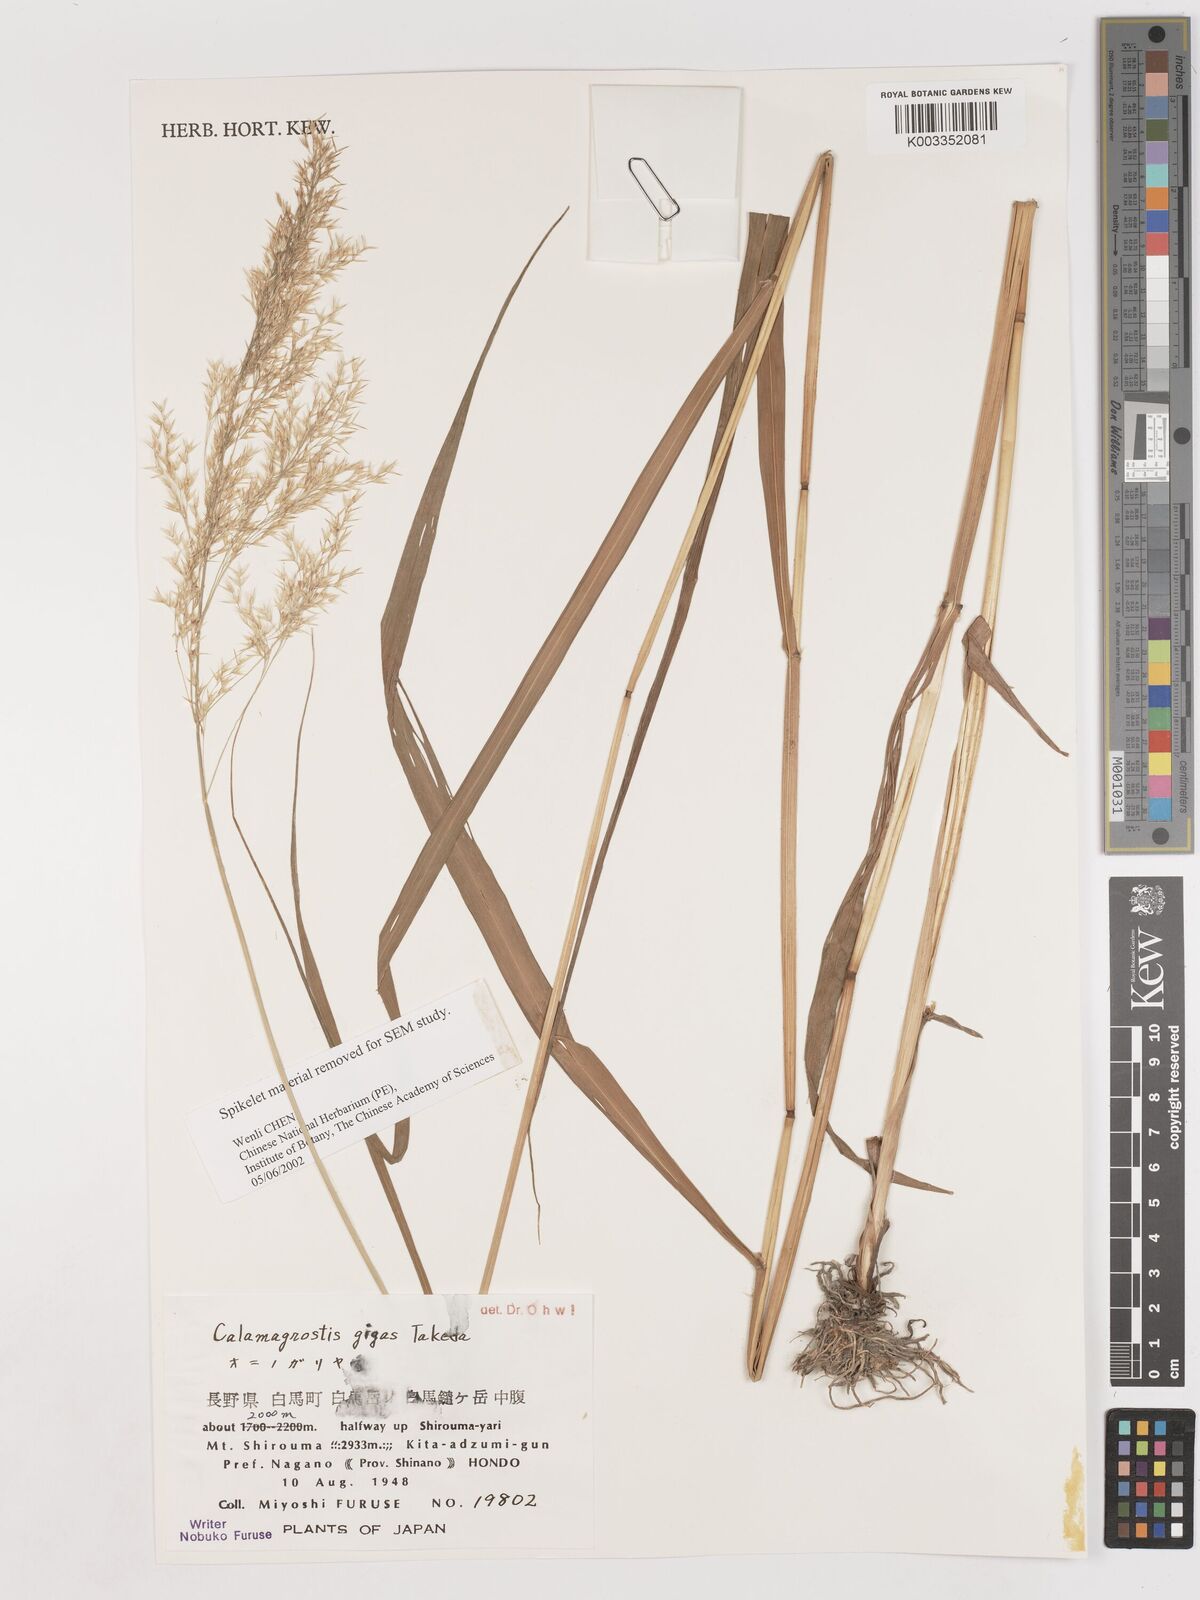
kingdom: Plantae
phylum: Tracheophyta
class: Liliopsida
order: Poales
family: Poaceae
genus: Calamagrostis
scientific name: Calamagrostis gigas
